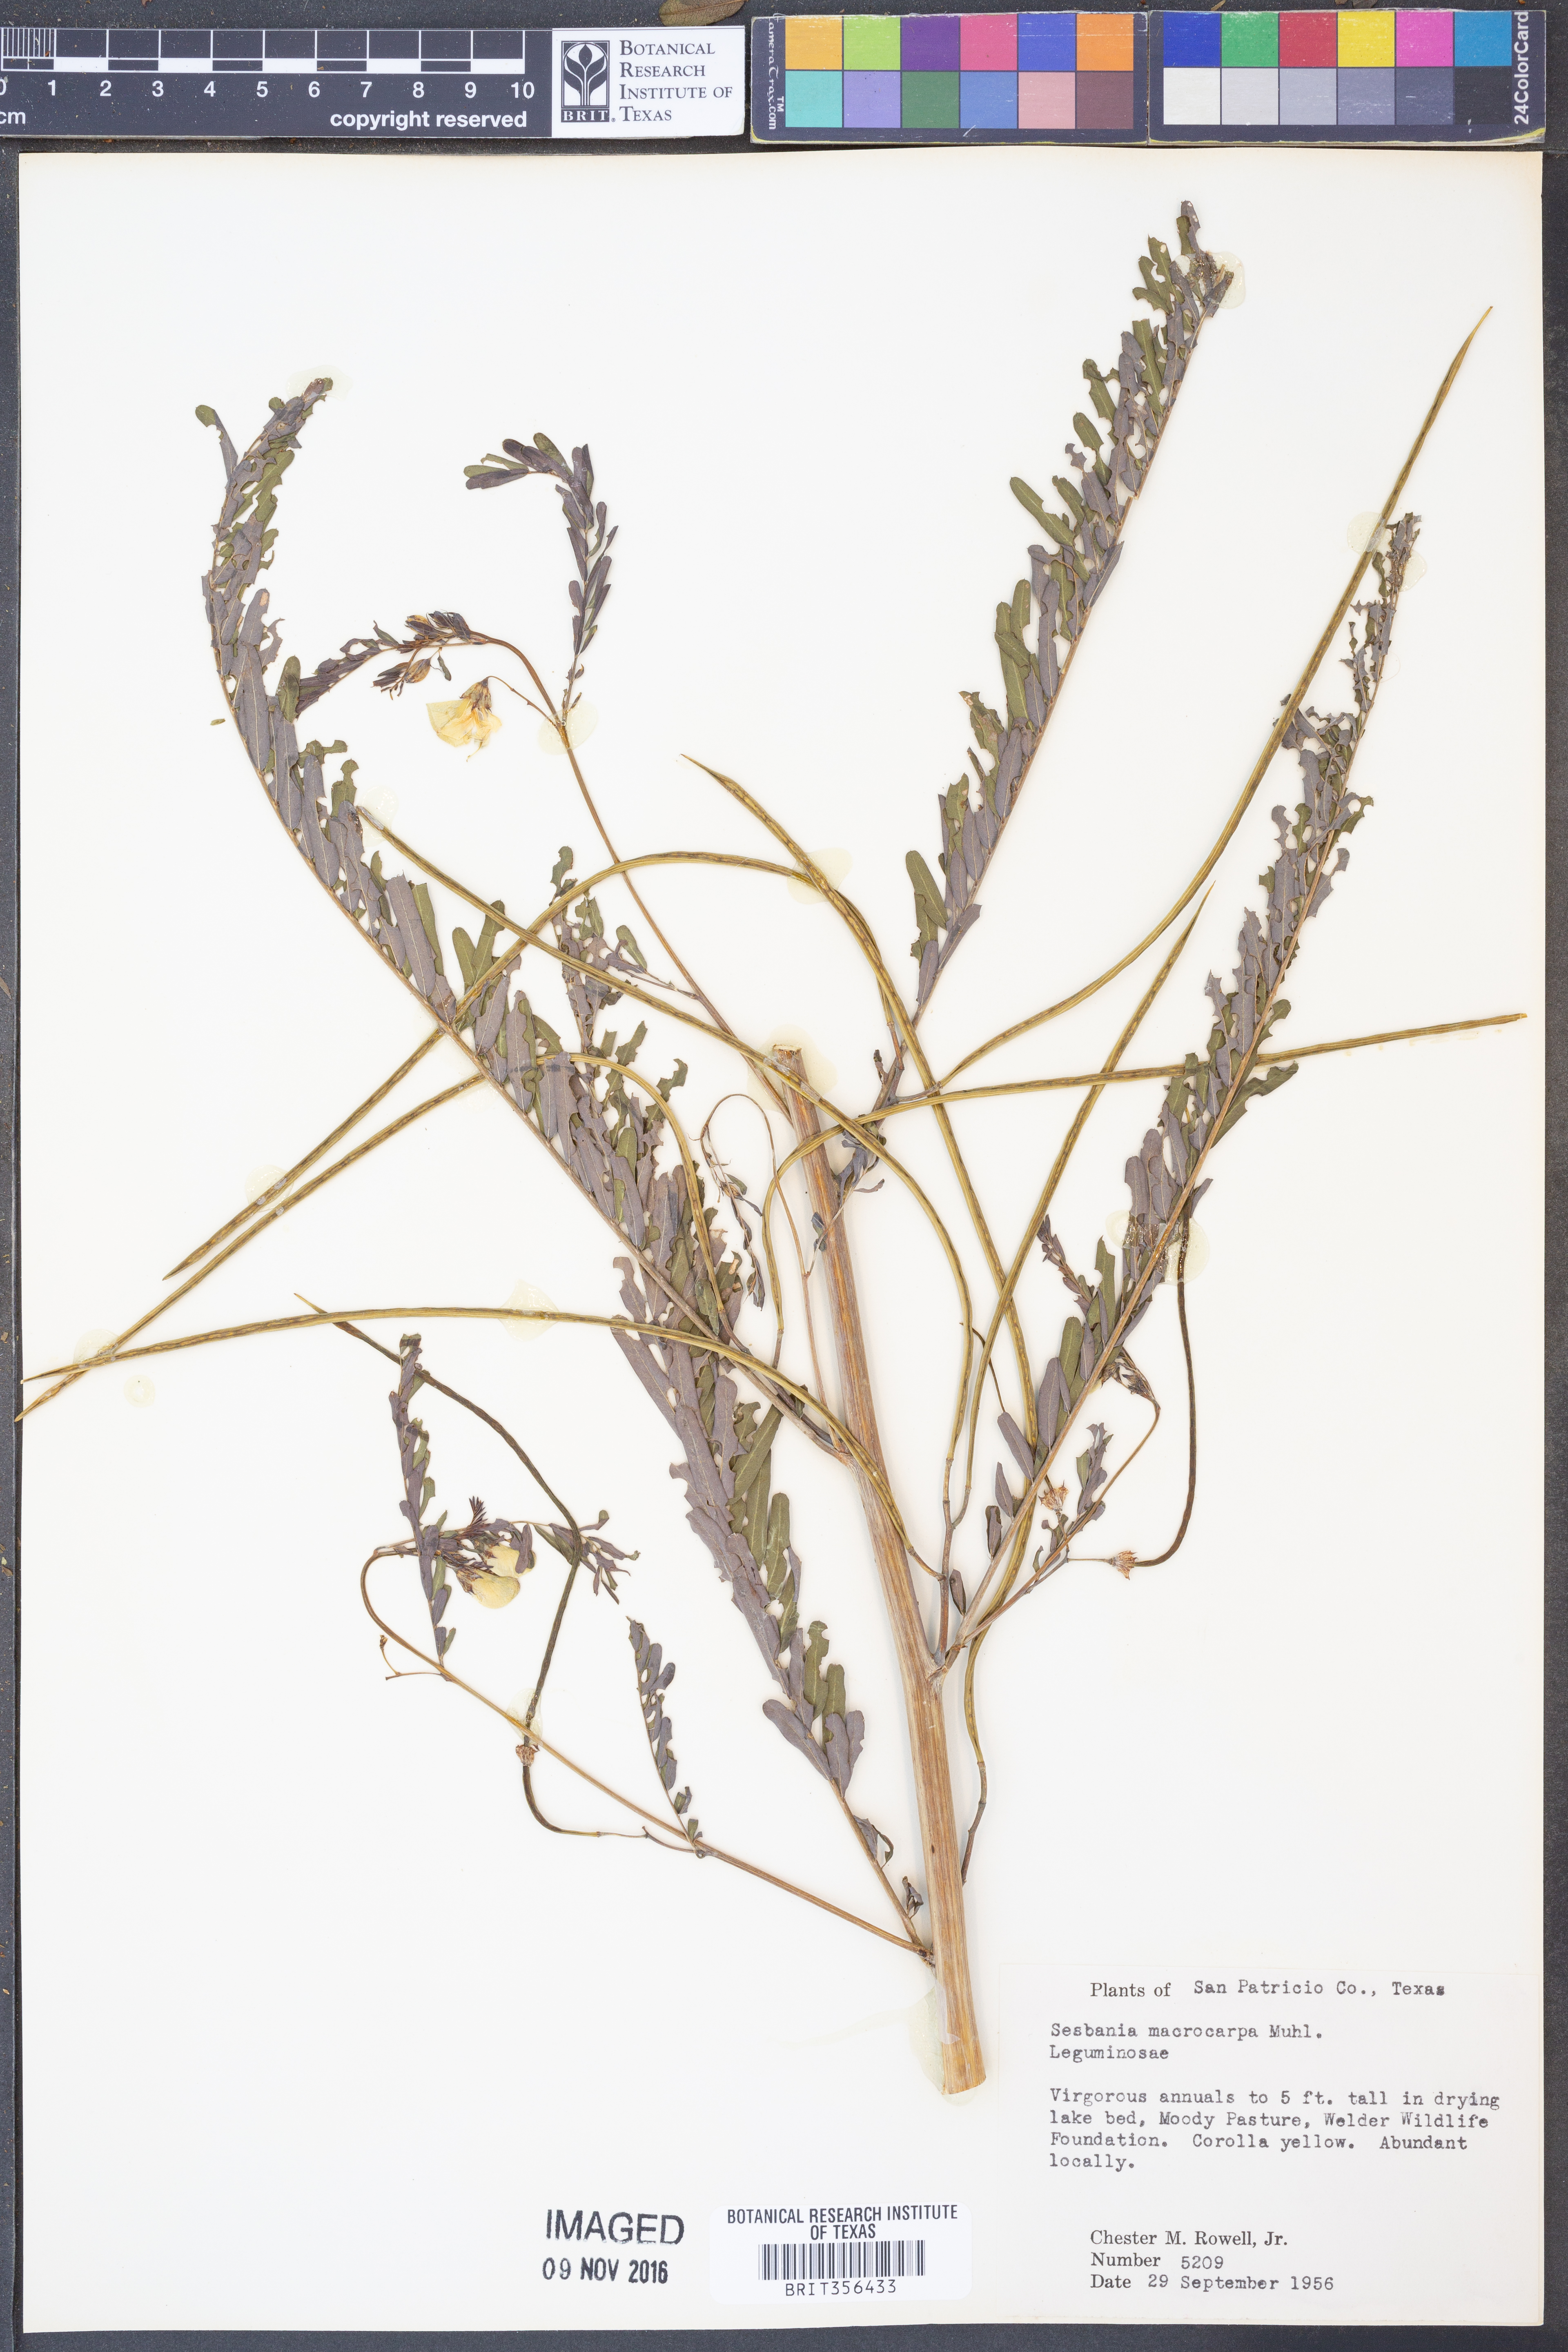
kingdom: Plantae
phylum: Tracheophyta
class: Magnoliopsida
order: Fabales
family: Fabaceae
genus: Sesbania
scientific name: Sesbania vesicaria
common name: Bagpod
